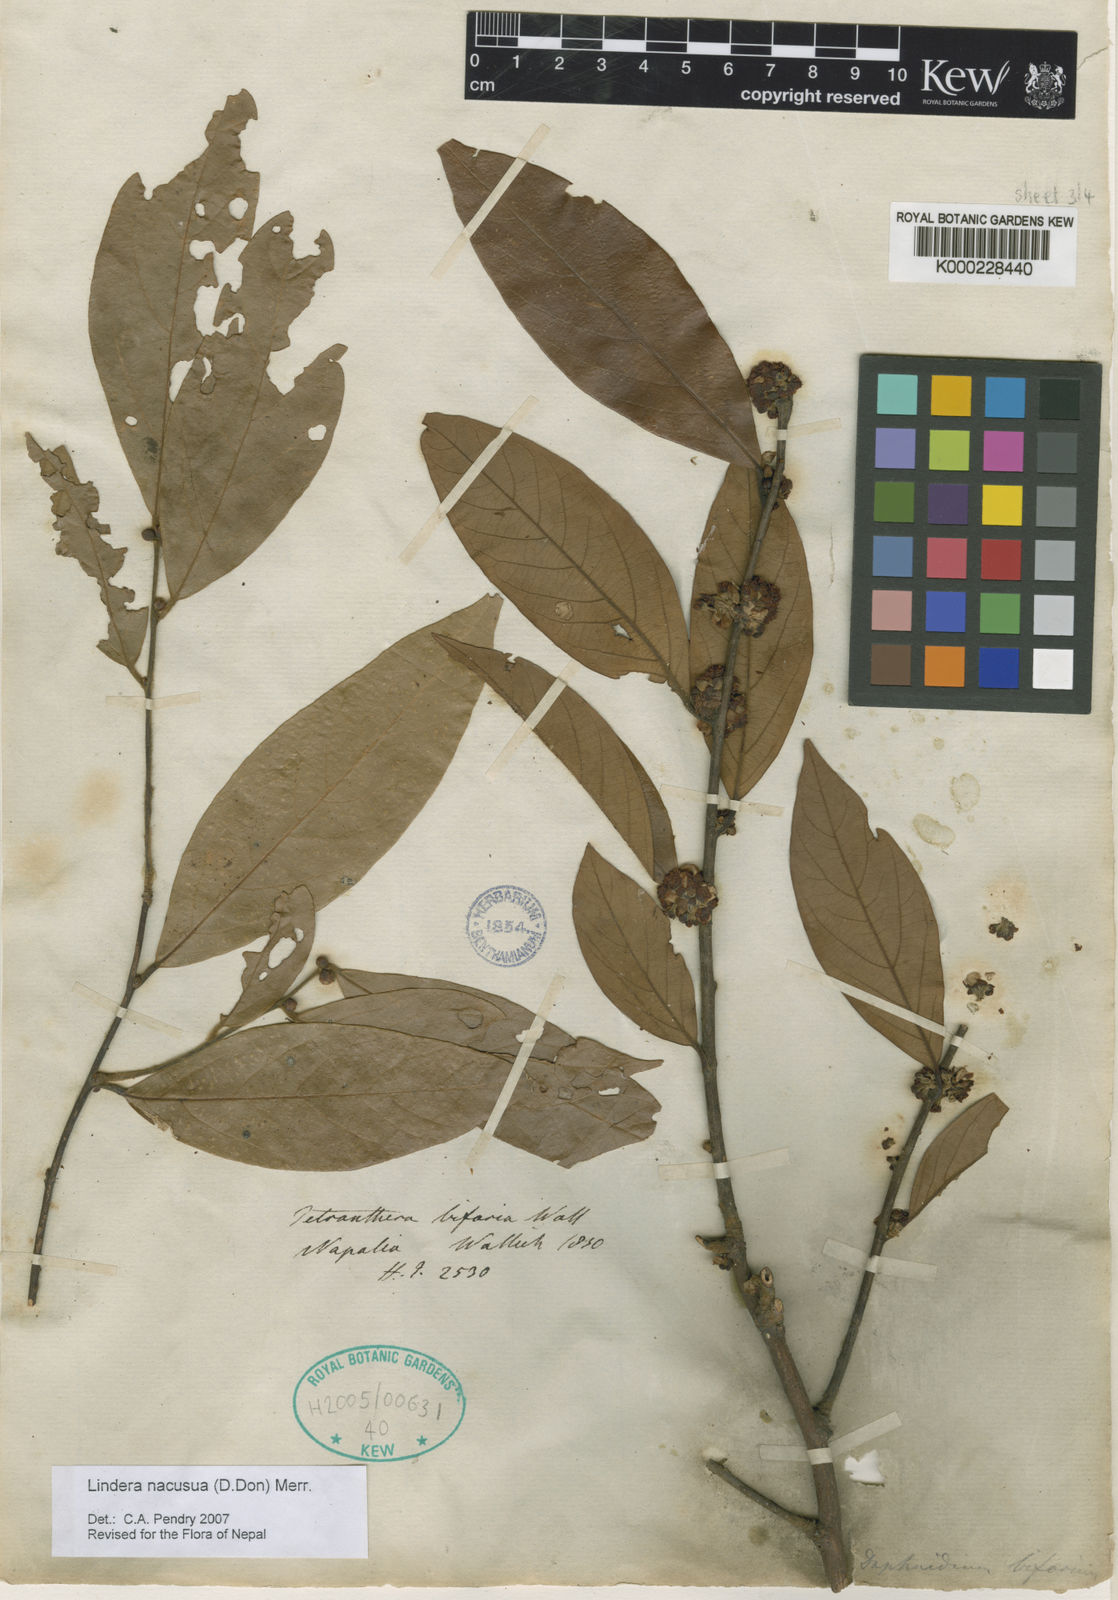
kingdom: Plantae
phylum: Tracheophyta
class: Magnoliopsida
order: Laurales
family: Lauraceae
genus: Lindera
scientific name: Lindera nacusua
